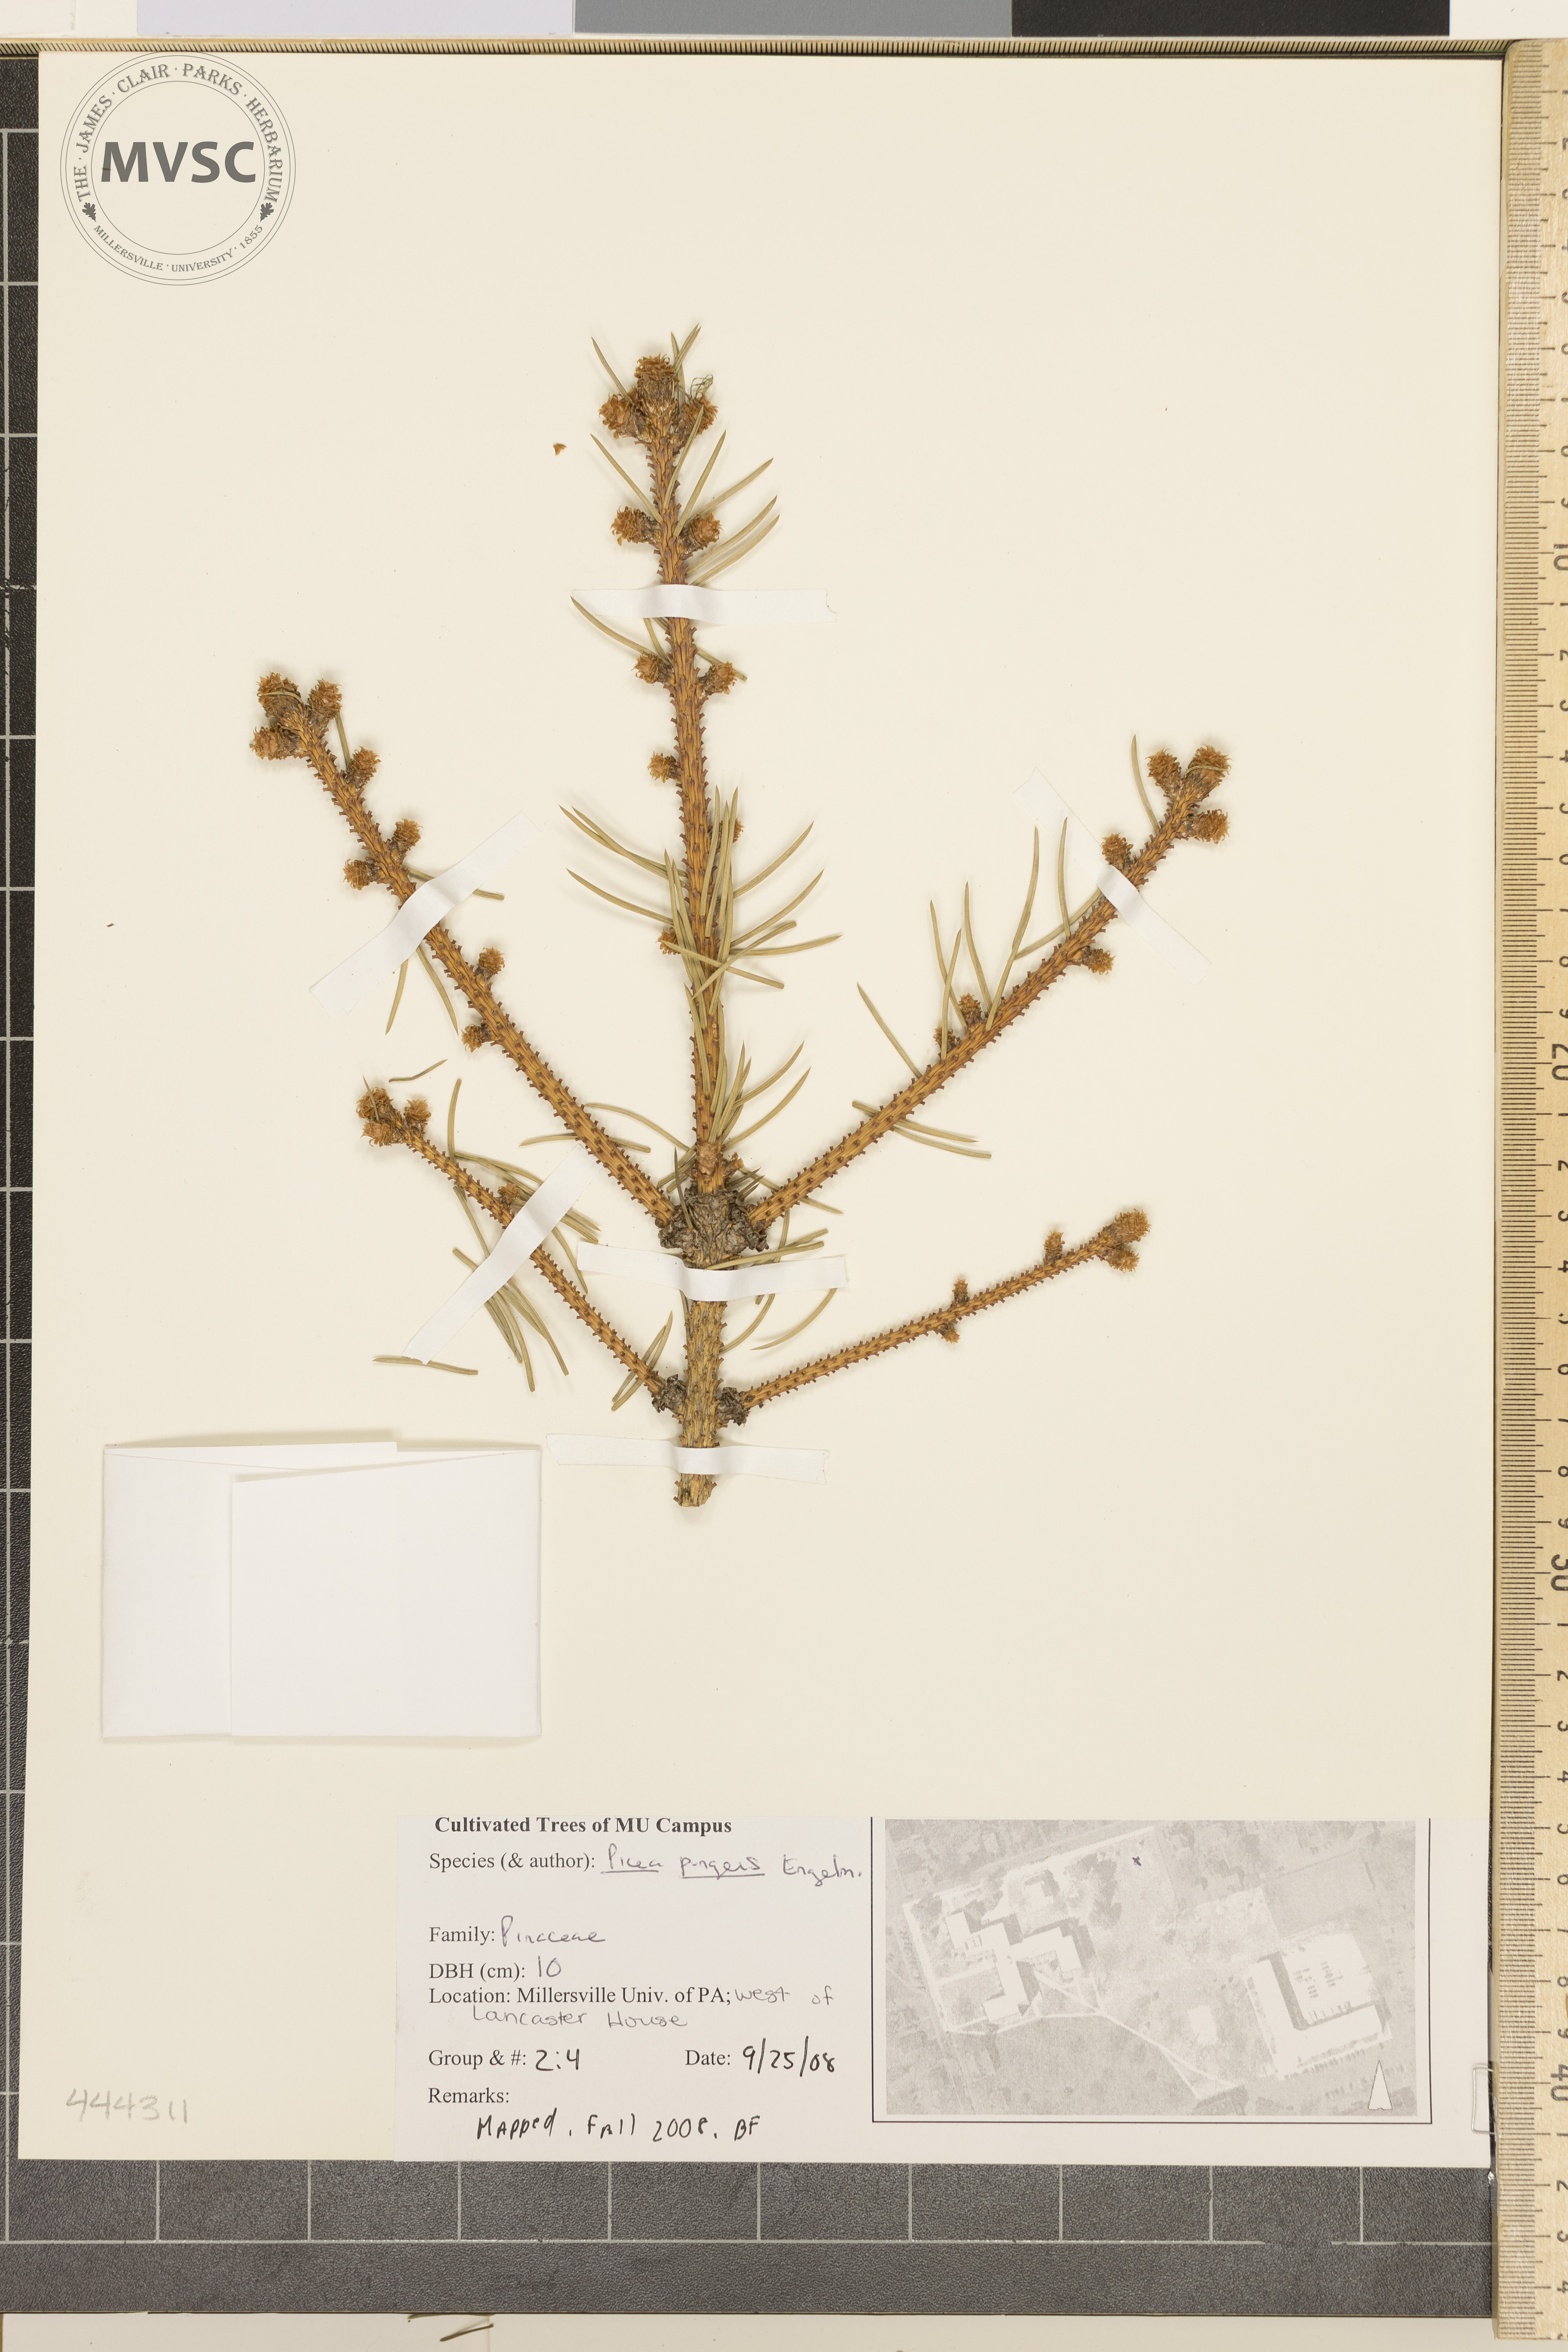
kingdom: Plantae
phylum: Tracheophyta
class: Pinopsida
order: Pinales
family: Pinaceae
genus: Picea
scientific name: Picea pungens
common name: Colorado Blue Spruce
